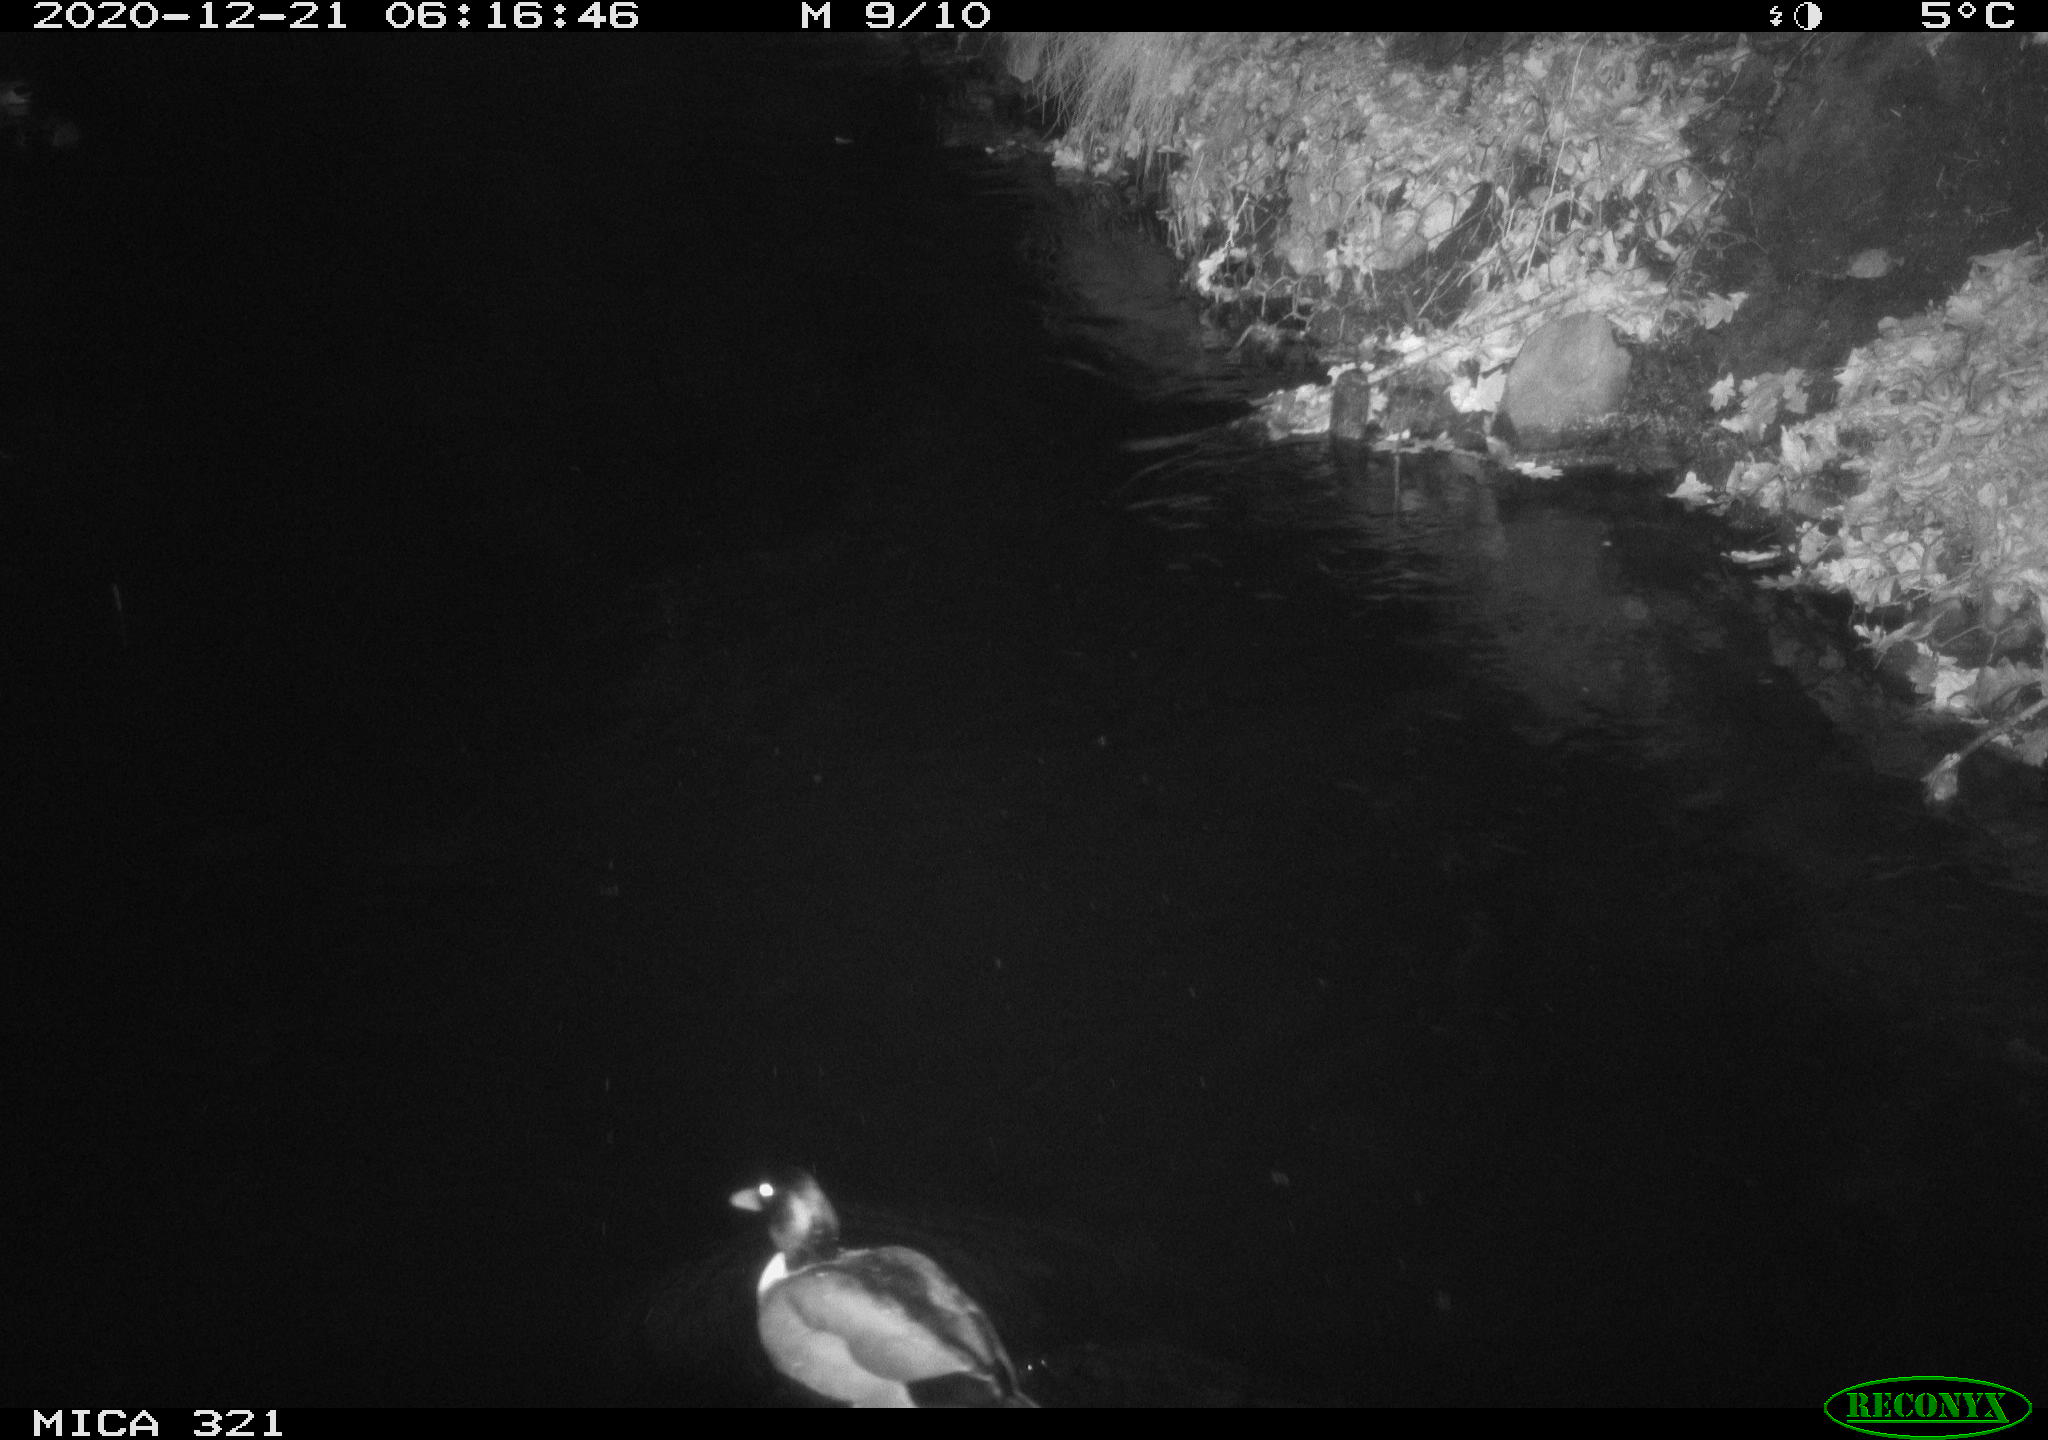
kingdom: Animalia
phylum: Chordata
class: Aves
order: Anseriformes
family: Anatidae
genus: Anas
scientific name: Anas platyrhynchos
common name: Mallard
